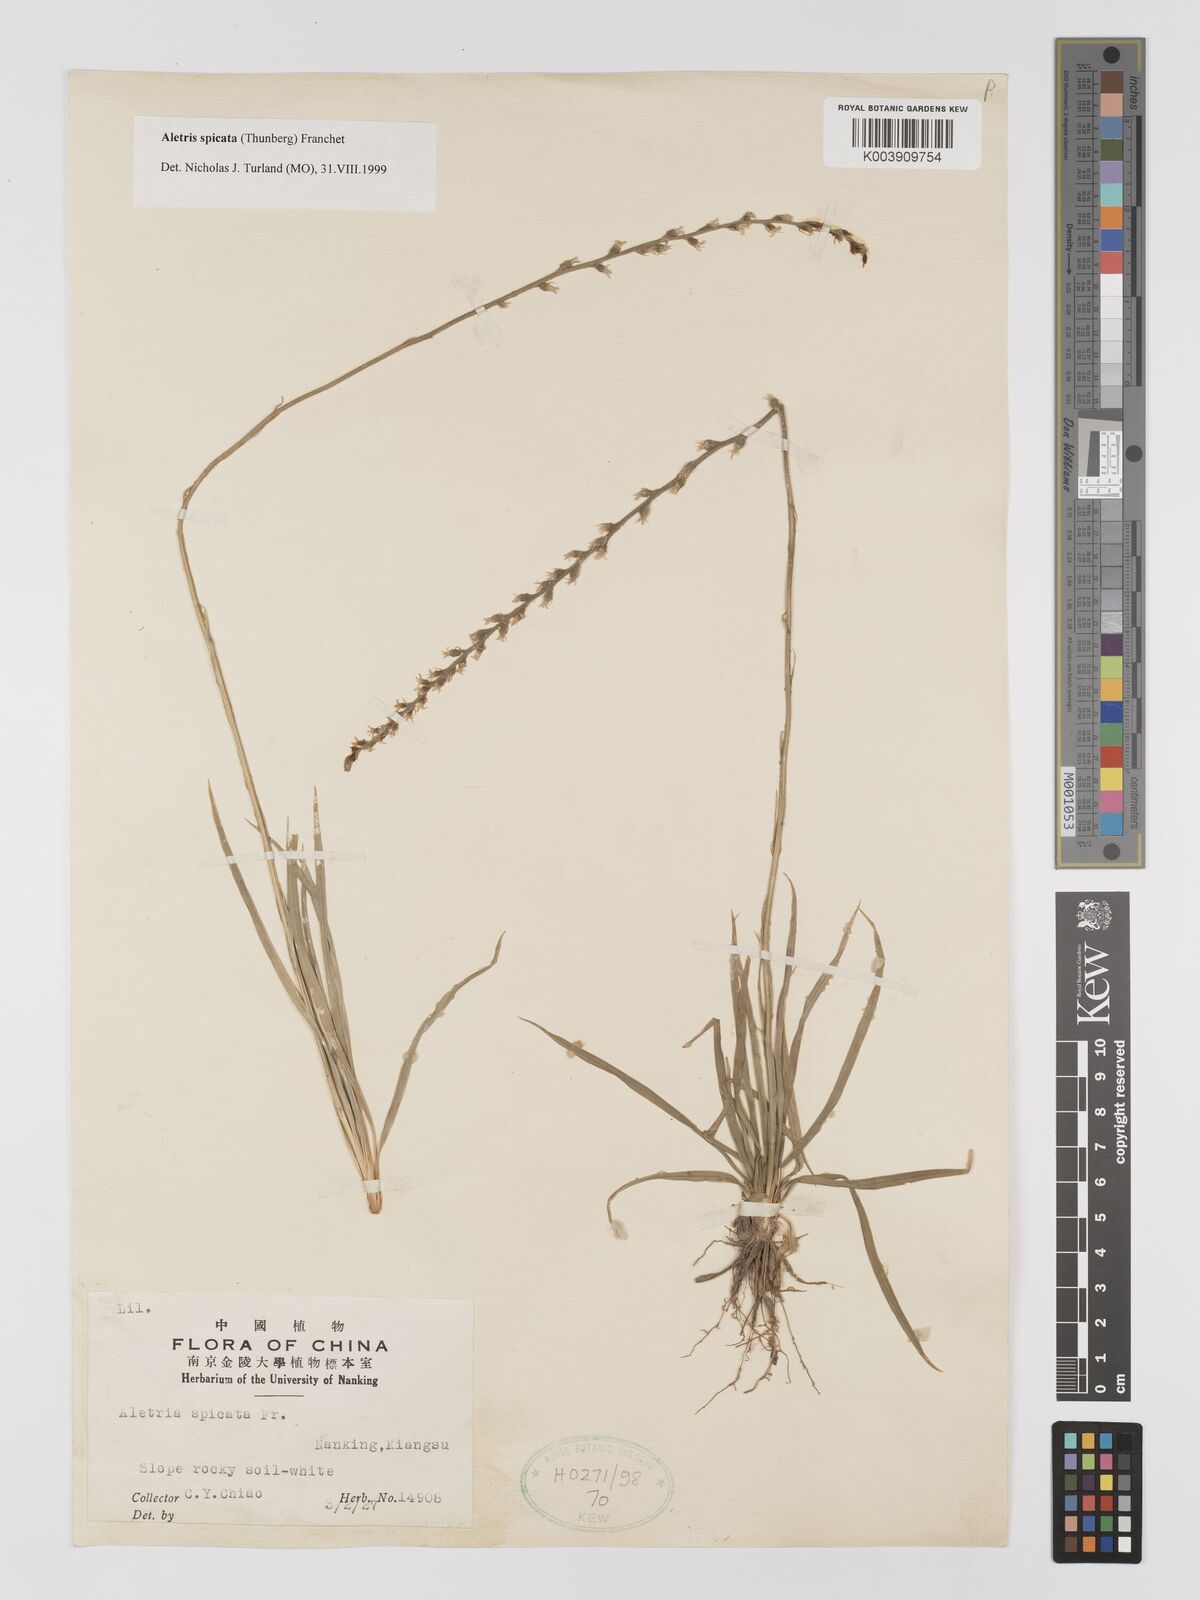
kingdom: Plantae
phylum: Tracheophyta
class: Liliopsida
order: Dioscoreales
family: Nartheciaceae
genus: Aletris
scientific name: Aletris spicata
